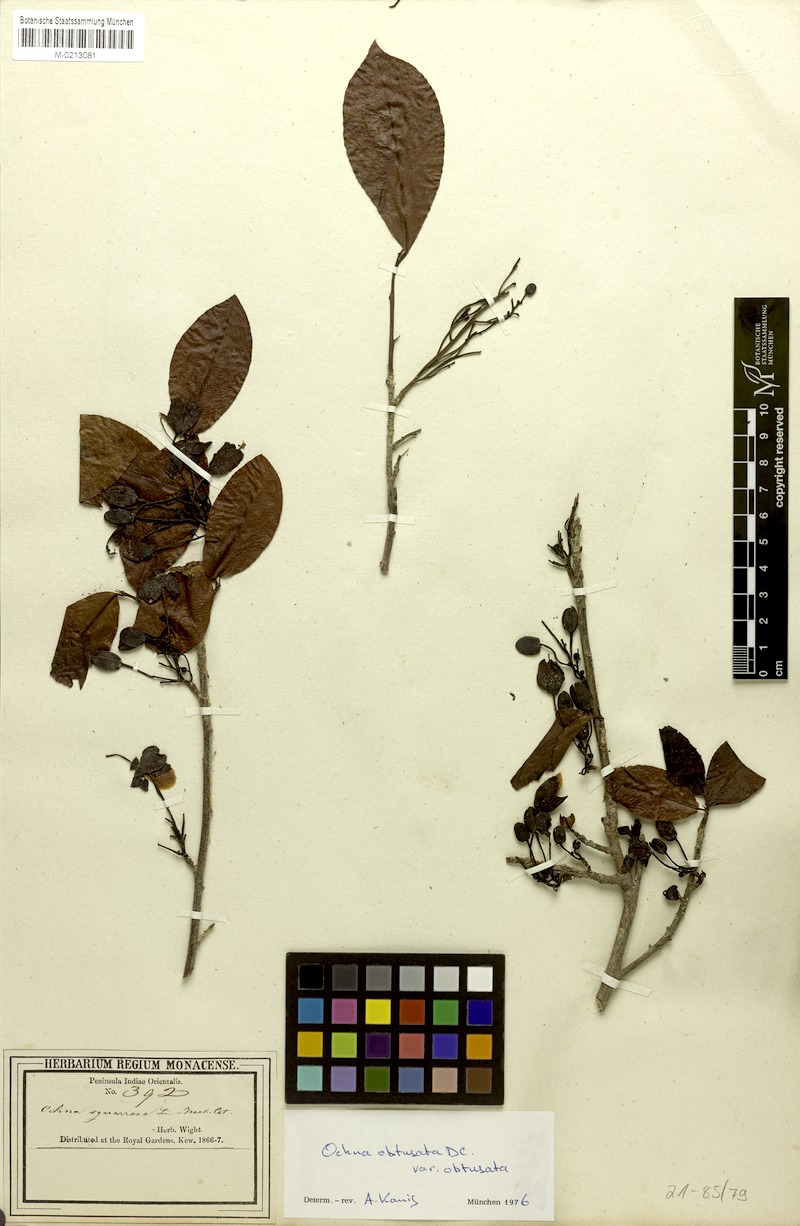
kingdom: Plantae
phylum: Tracheophyta
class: Magnoliopsida
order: Malpighiales
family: Ochnaceae
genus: Ochna
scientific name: Ochna obtusata
